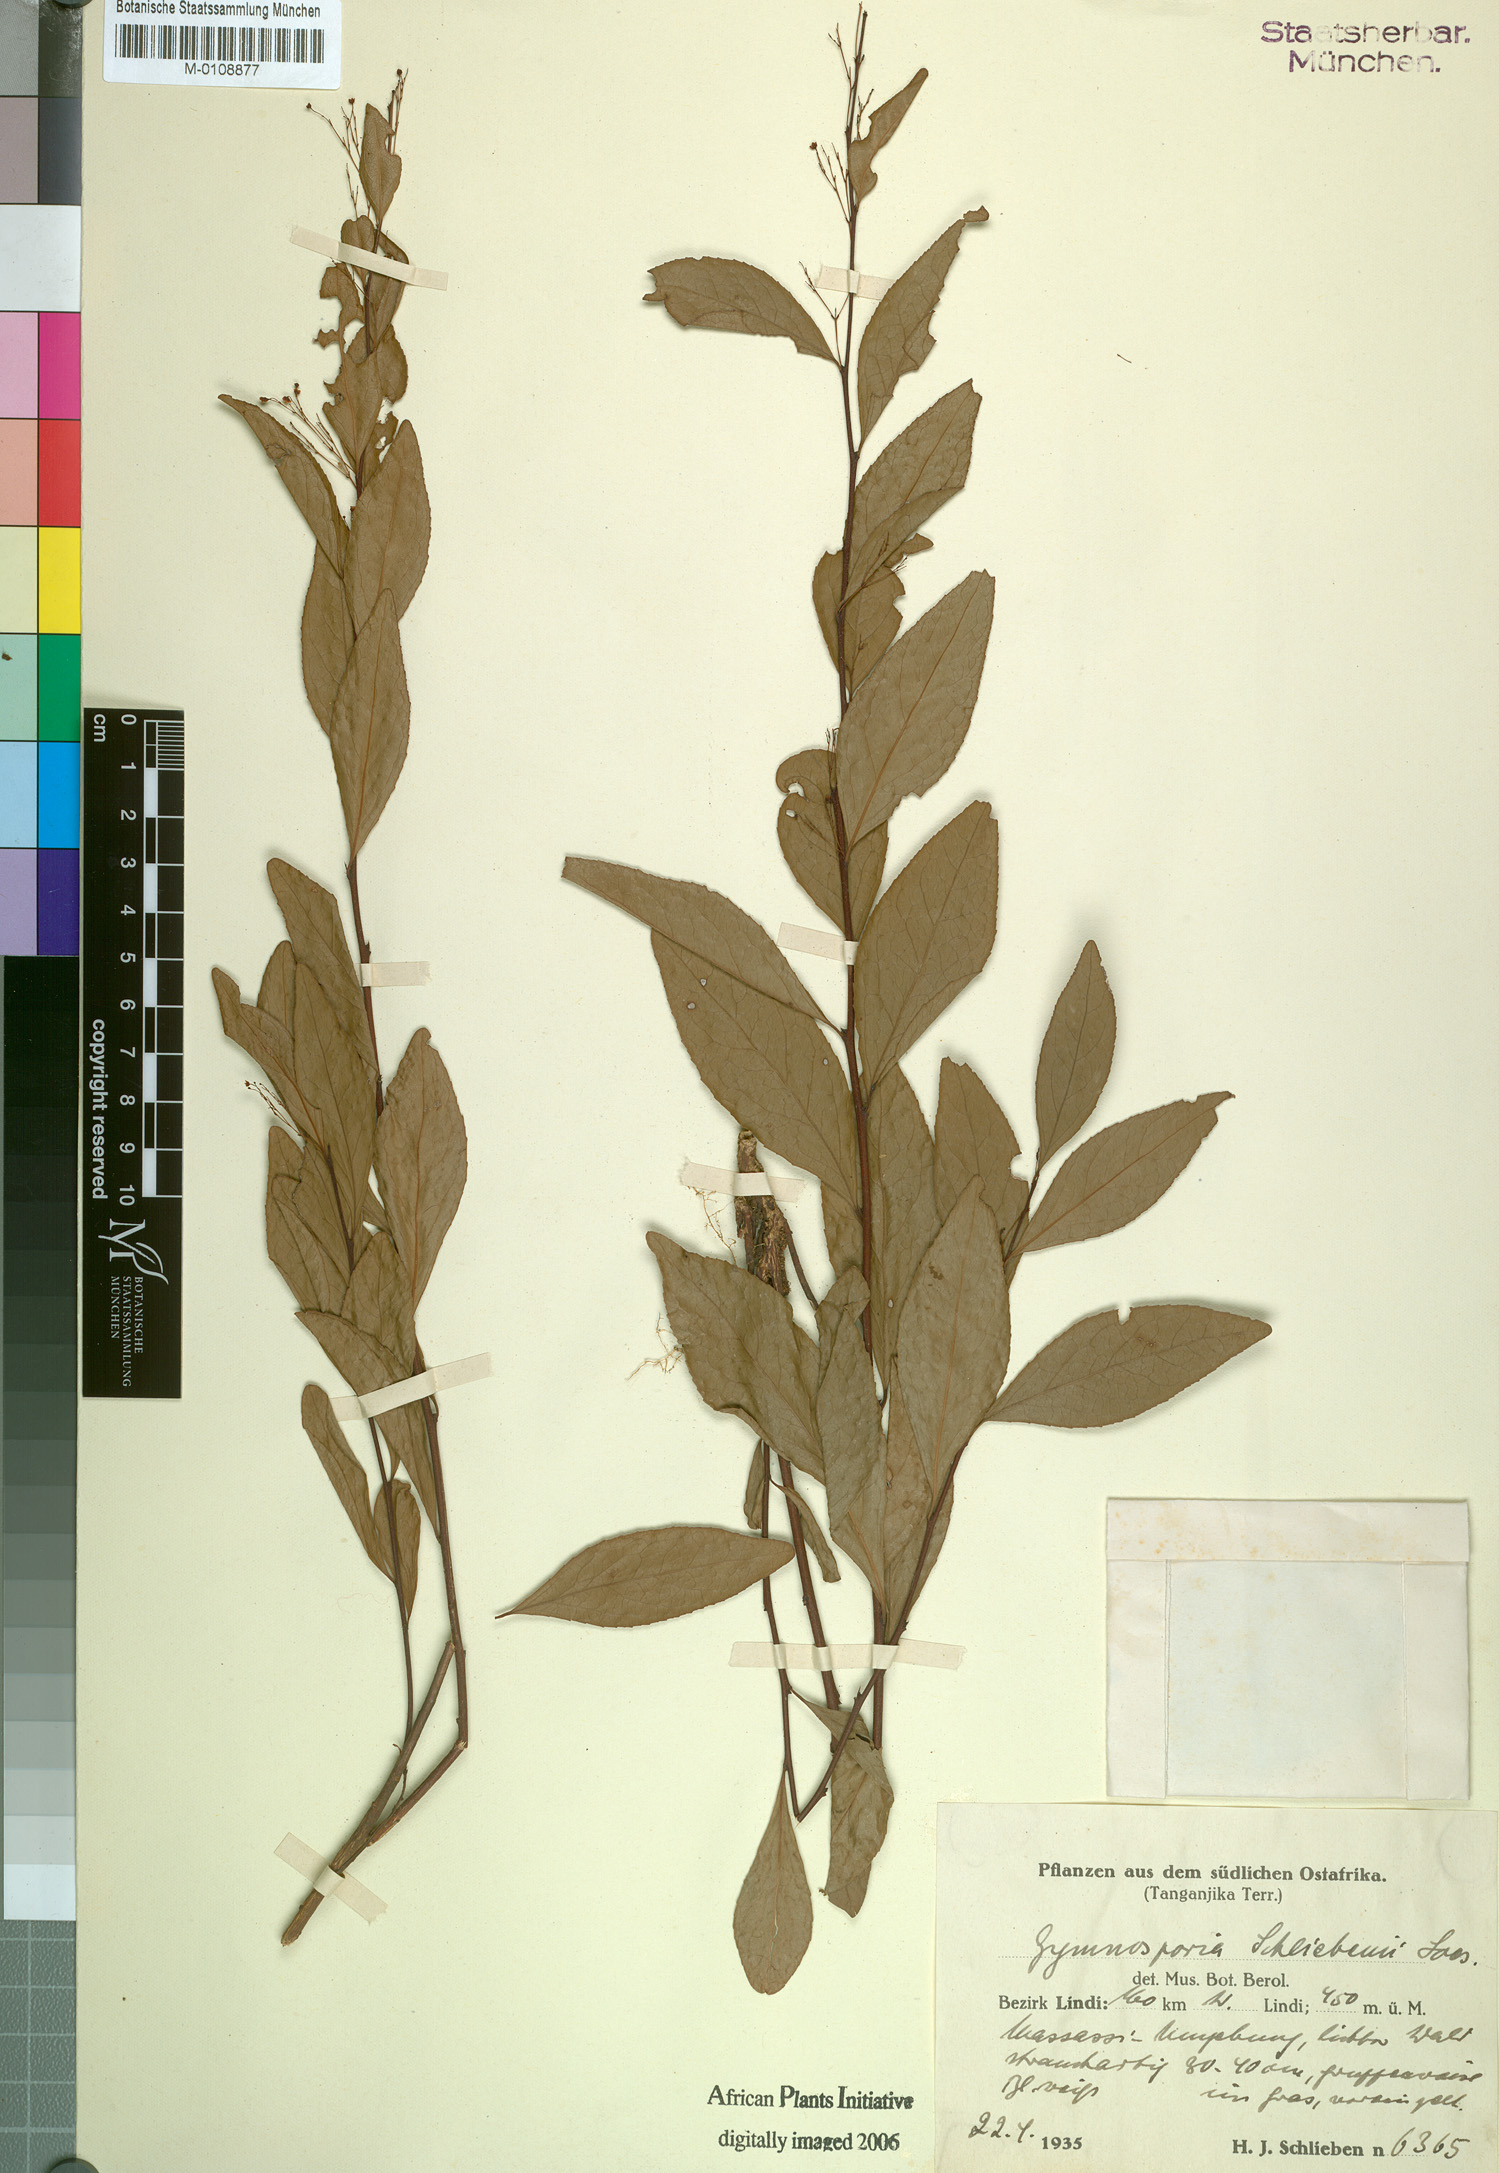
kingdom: Plantae
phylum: Tracheophyta
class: Magnoliopsida
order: Celastrales
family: Celastraceae
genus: Gymnosporia
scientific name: Gymnosporia schliebenii
